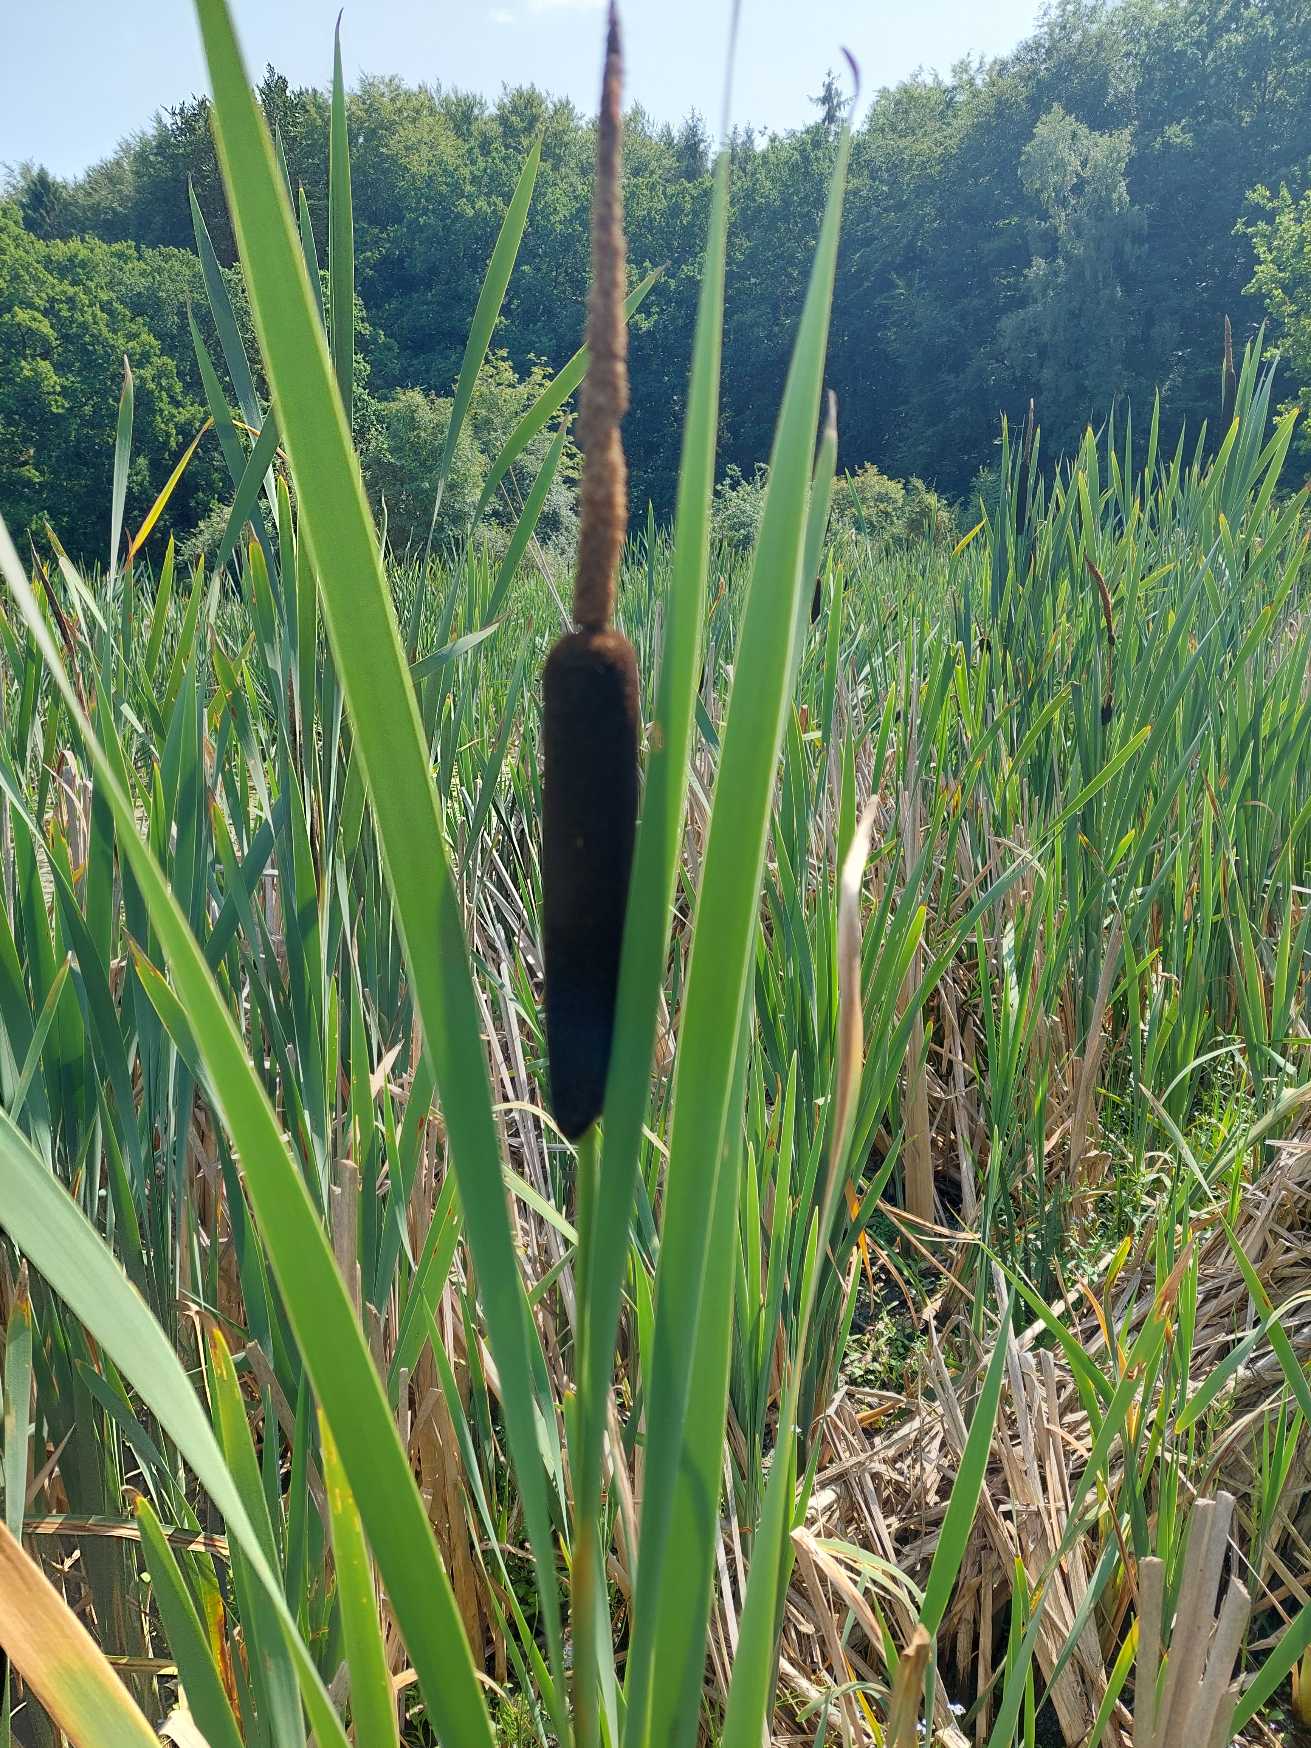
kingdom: Plantae
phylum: Tracheophyta
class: Liliopsida
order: Poales
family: Typhaceae
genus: Typha
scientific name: Typha latifolia
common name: Bredbladet dunhammer
